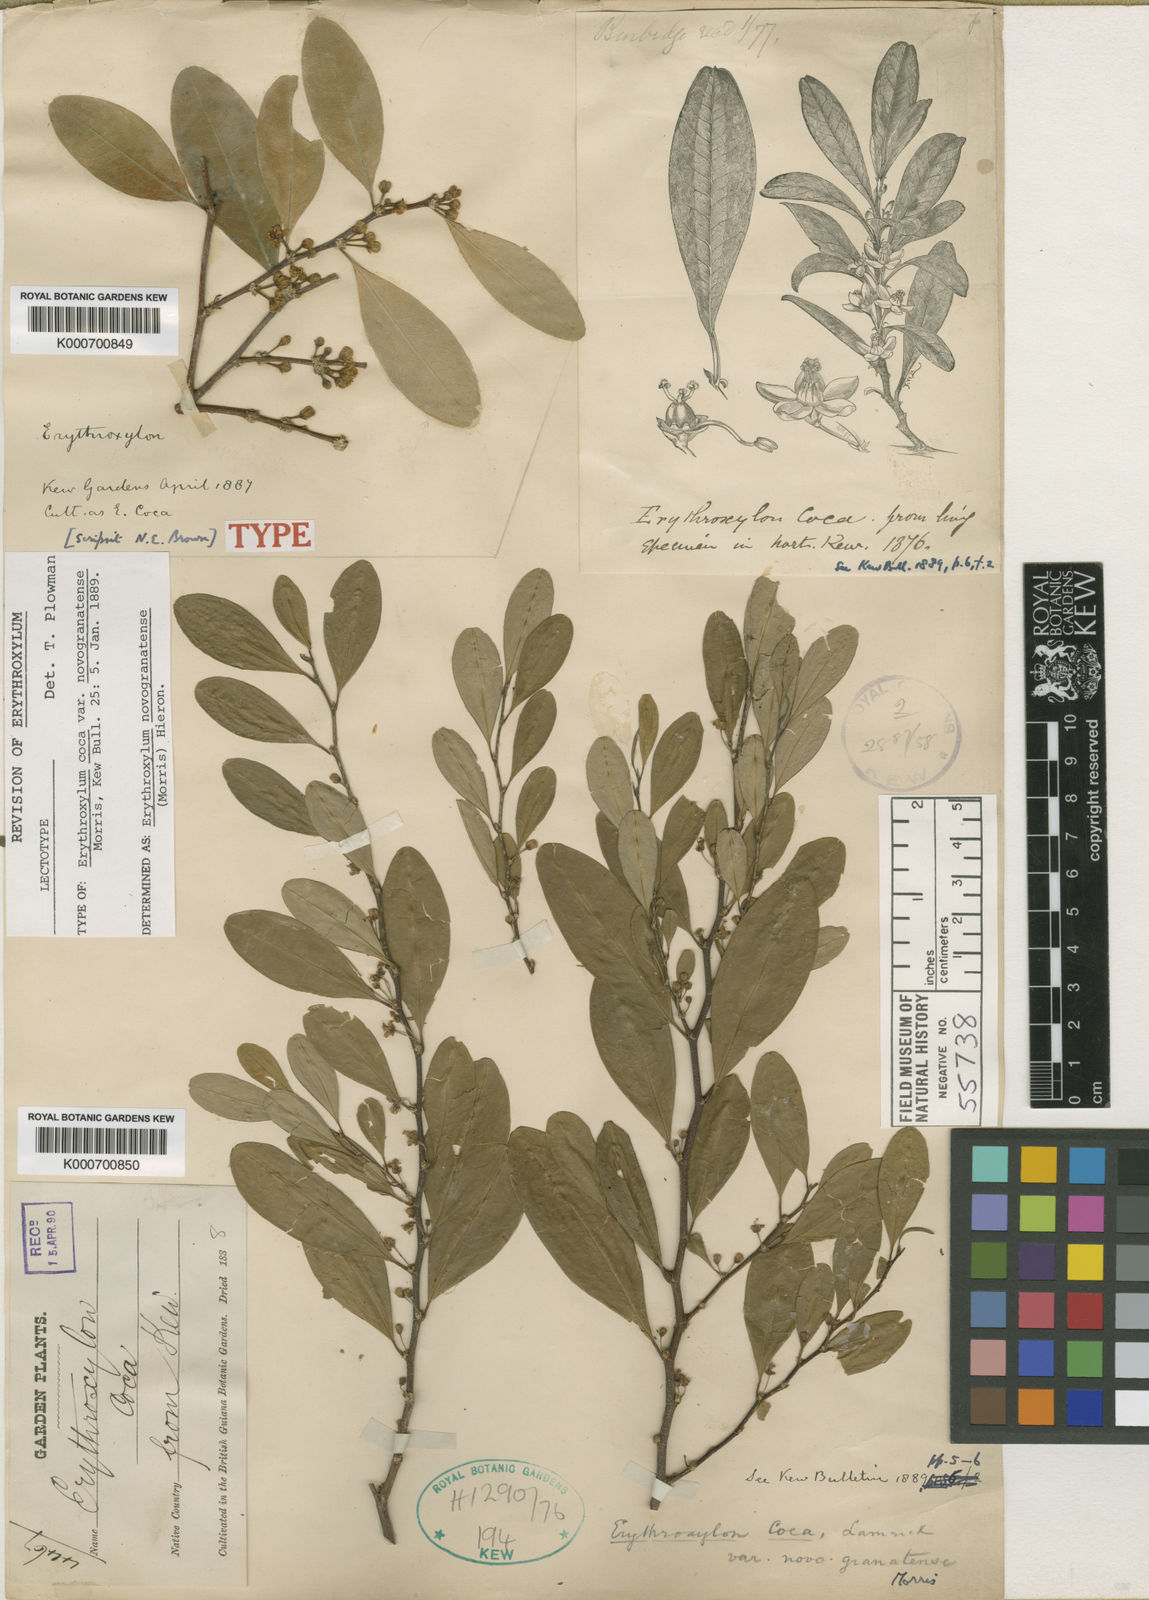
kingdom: Plantae
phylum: Tracheophyta
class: Magnoliopsida
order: Malpighiales
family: Erythroxylaceae
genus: Erythroxylum
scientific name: Erythroxylum novogranatense
